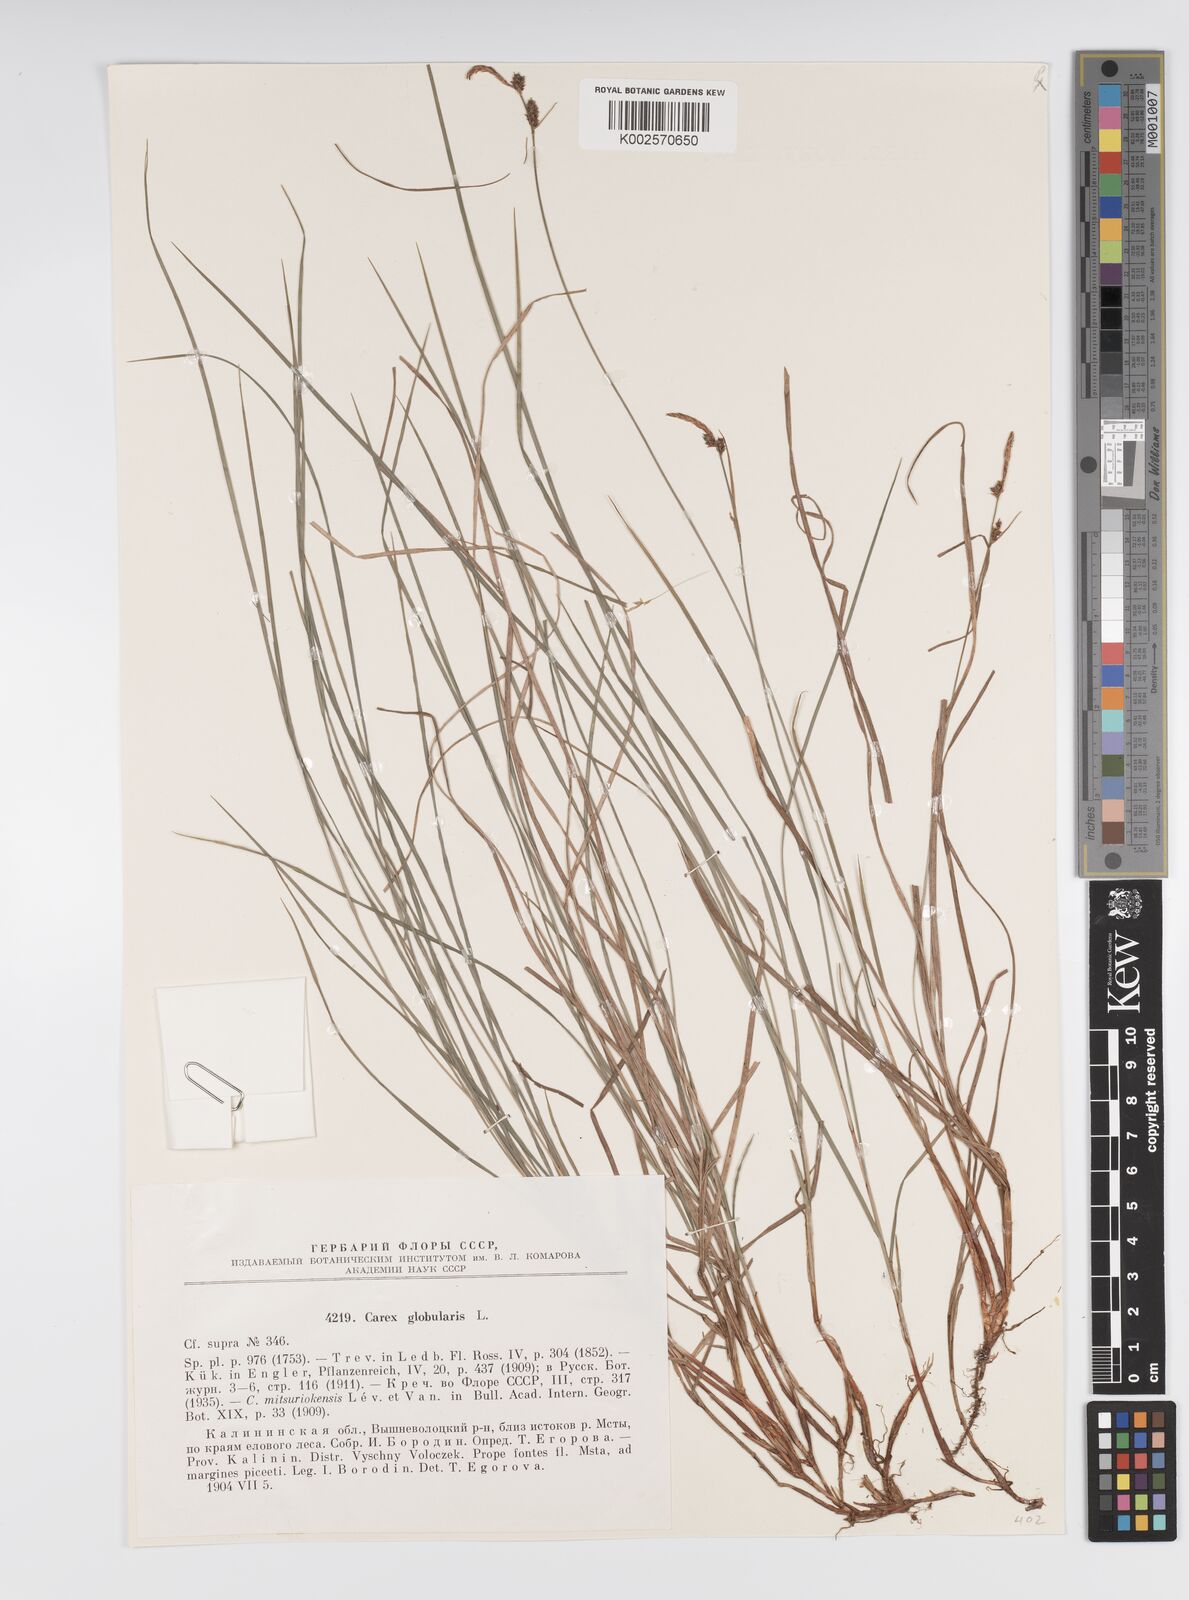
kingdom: Plantae
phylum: Tracheophyta
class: Liliopsida
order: Poales
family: Cyperaceae
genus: Carex
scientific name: Carex globularis
